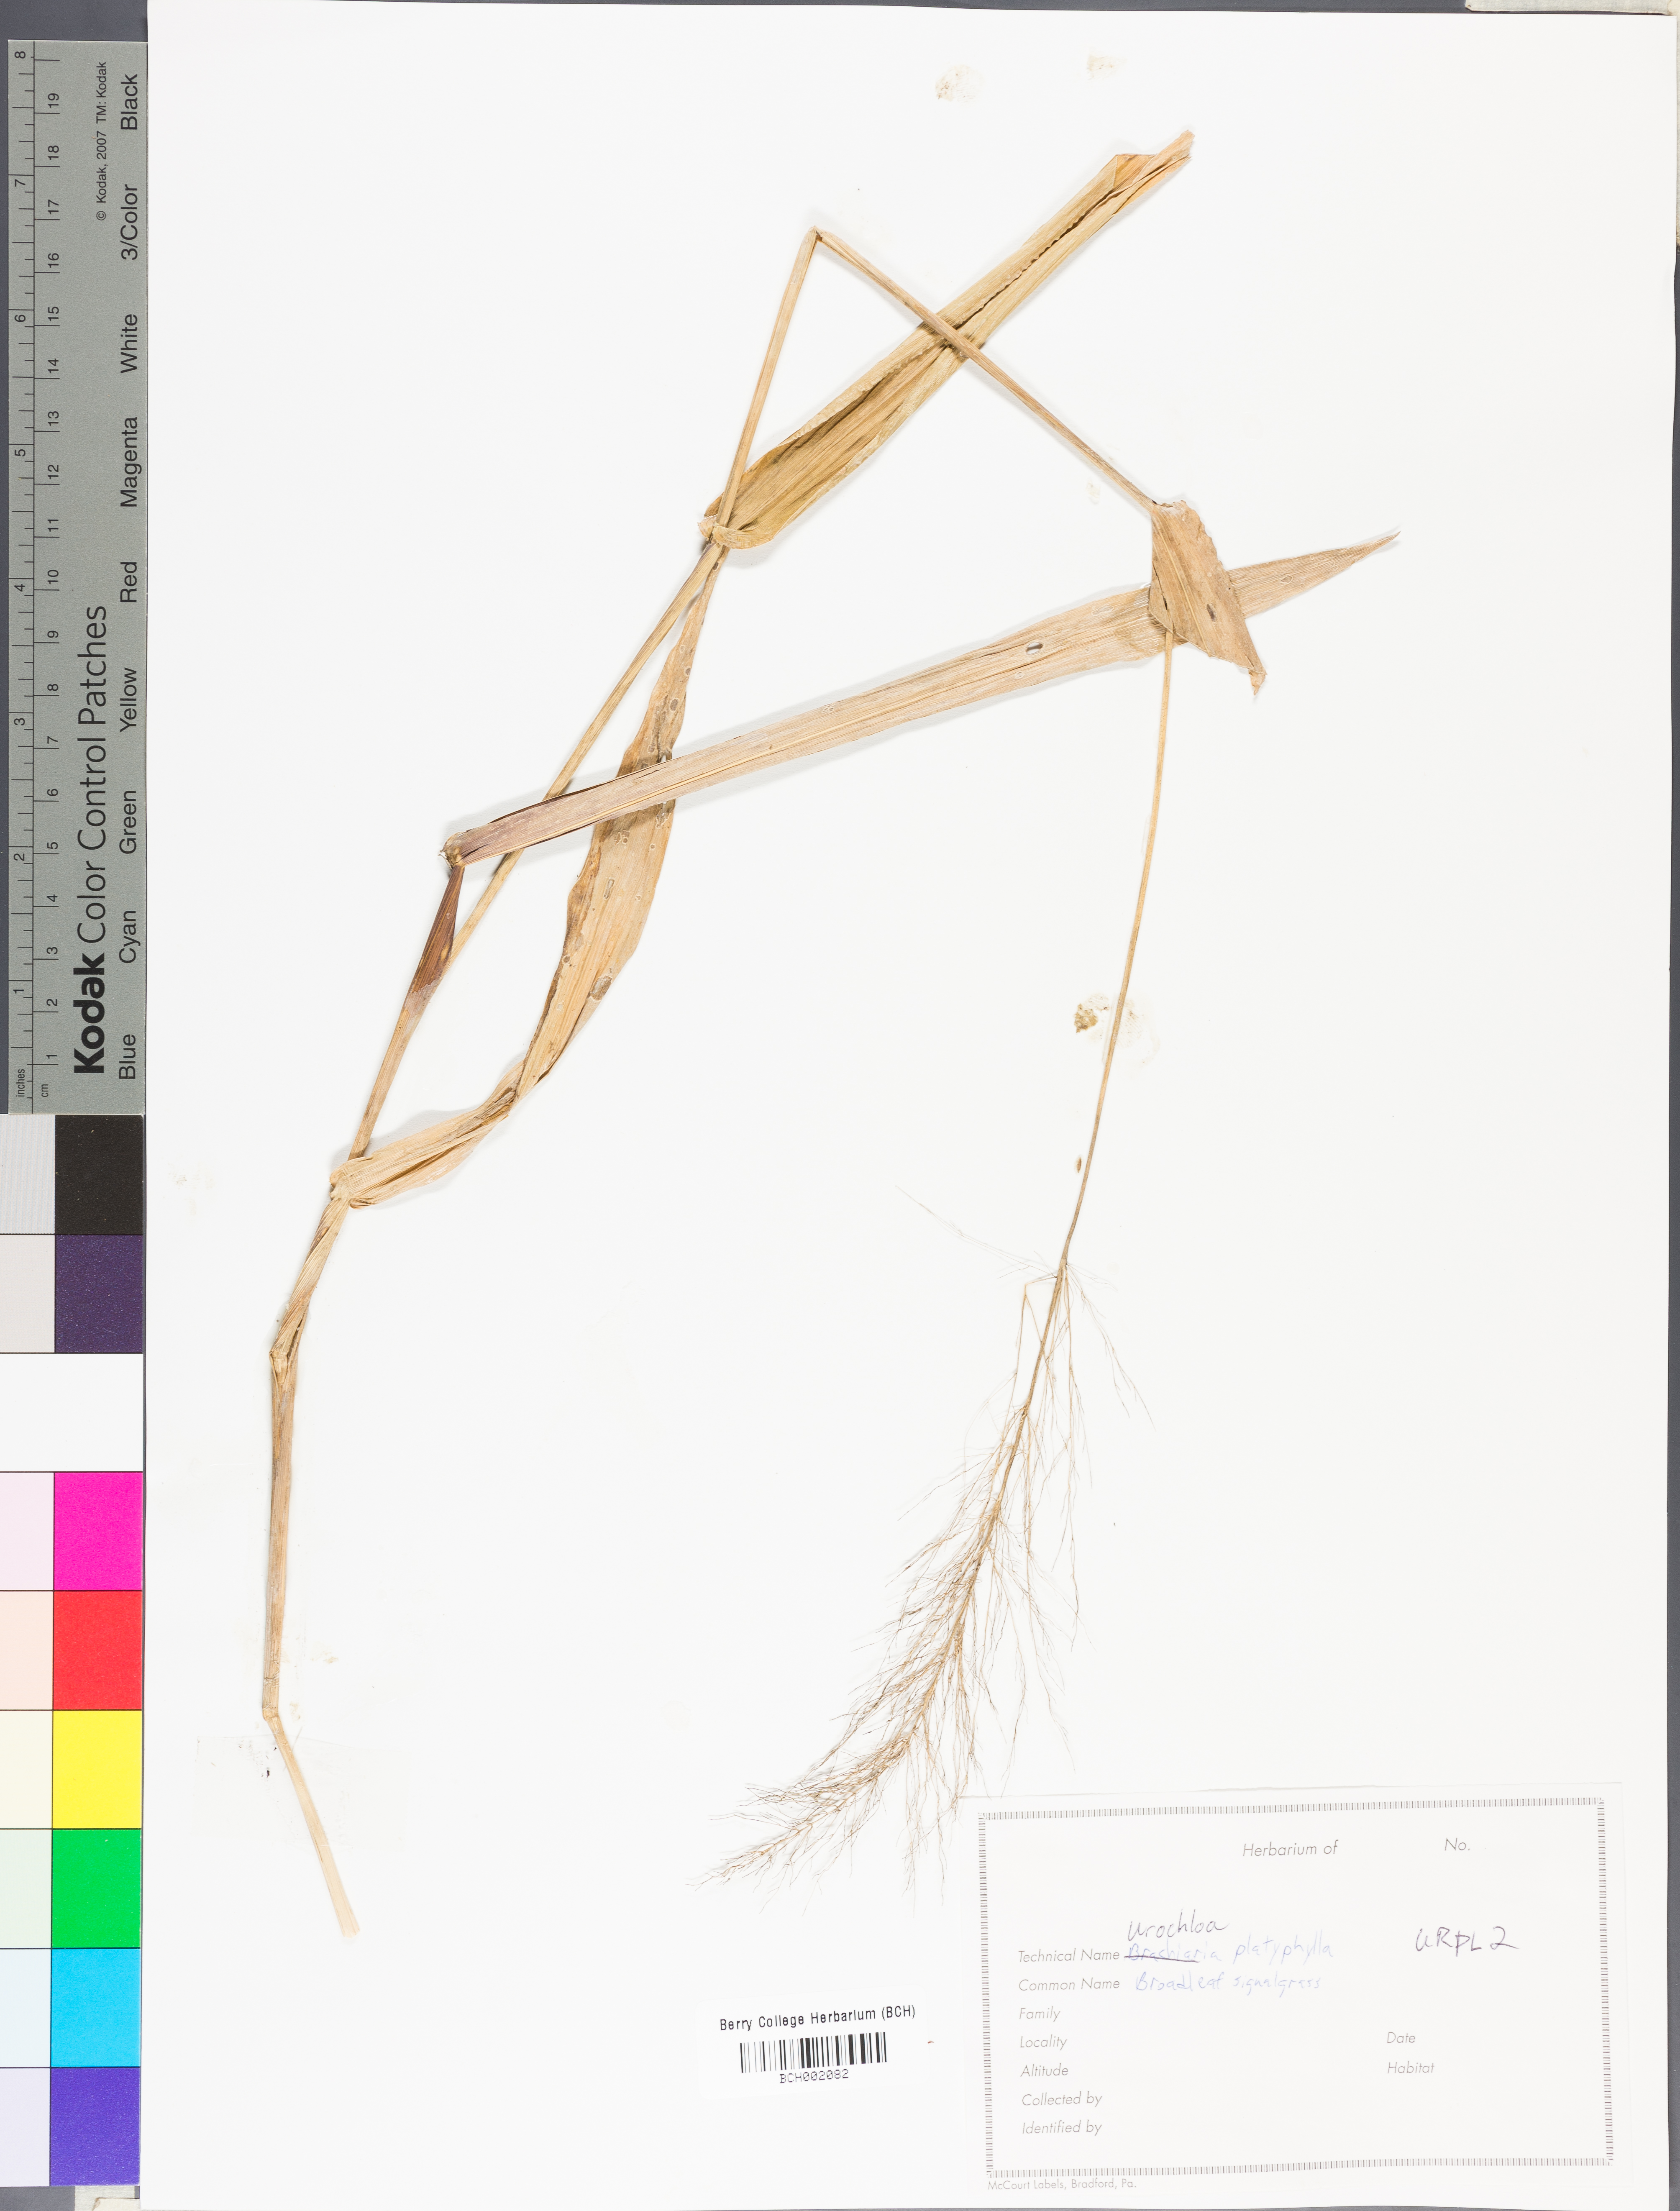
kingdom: Plantae
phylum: Tracheophyta
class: Liliopsida
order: Poales
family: Poaceae
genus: Urochloa
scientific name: Urochloa platyphylla
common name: White para grass
